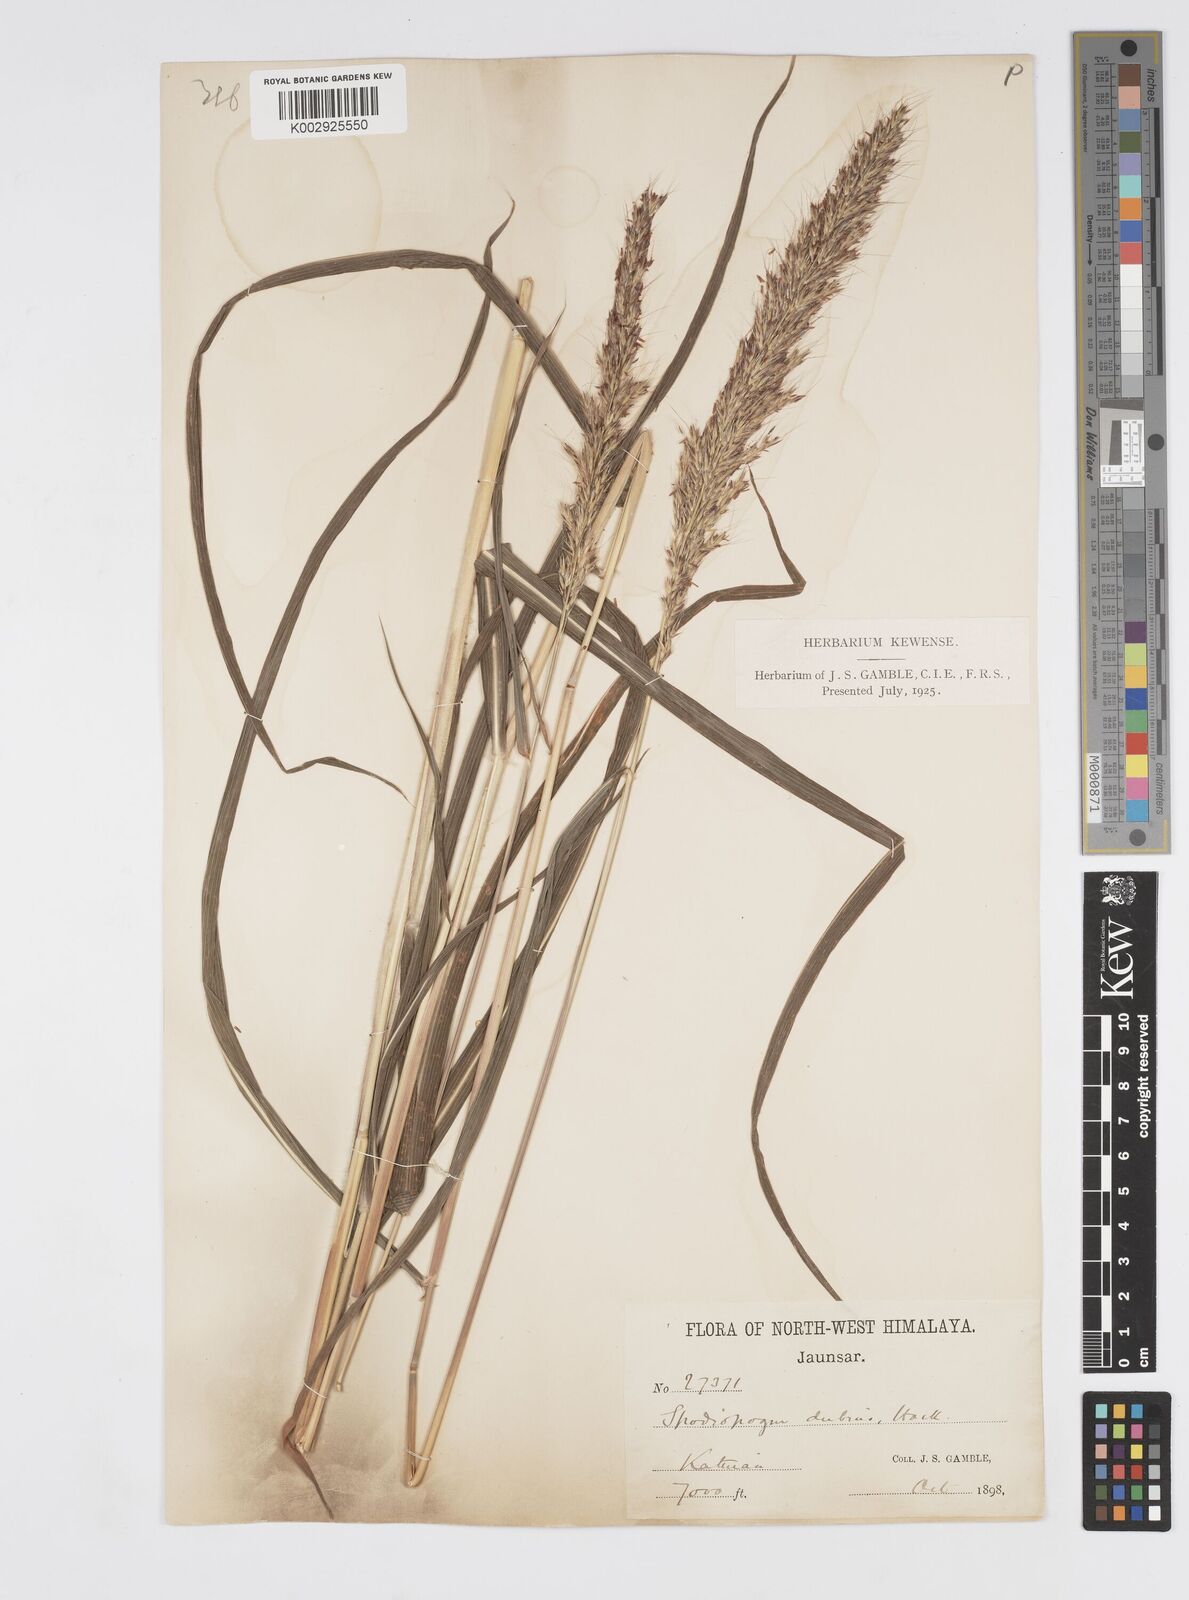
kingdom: Plantae
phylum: Tracheophyta
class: Liliopsida
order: Poales
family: Poaceae
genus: Spodiopogon
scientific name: Spodiopogon cotulifer
